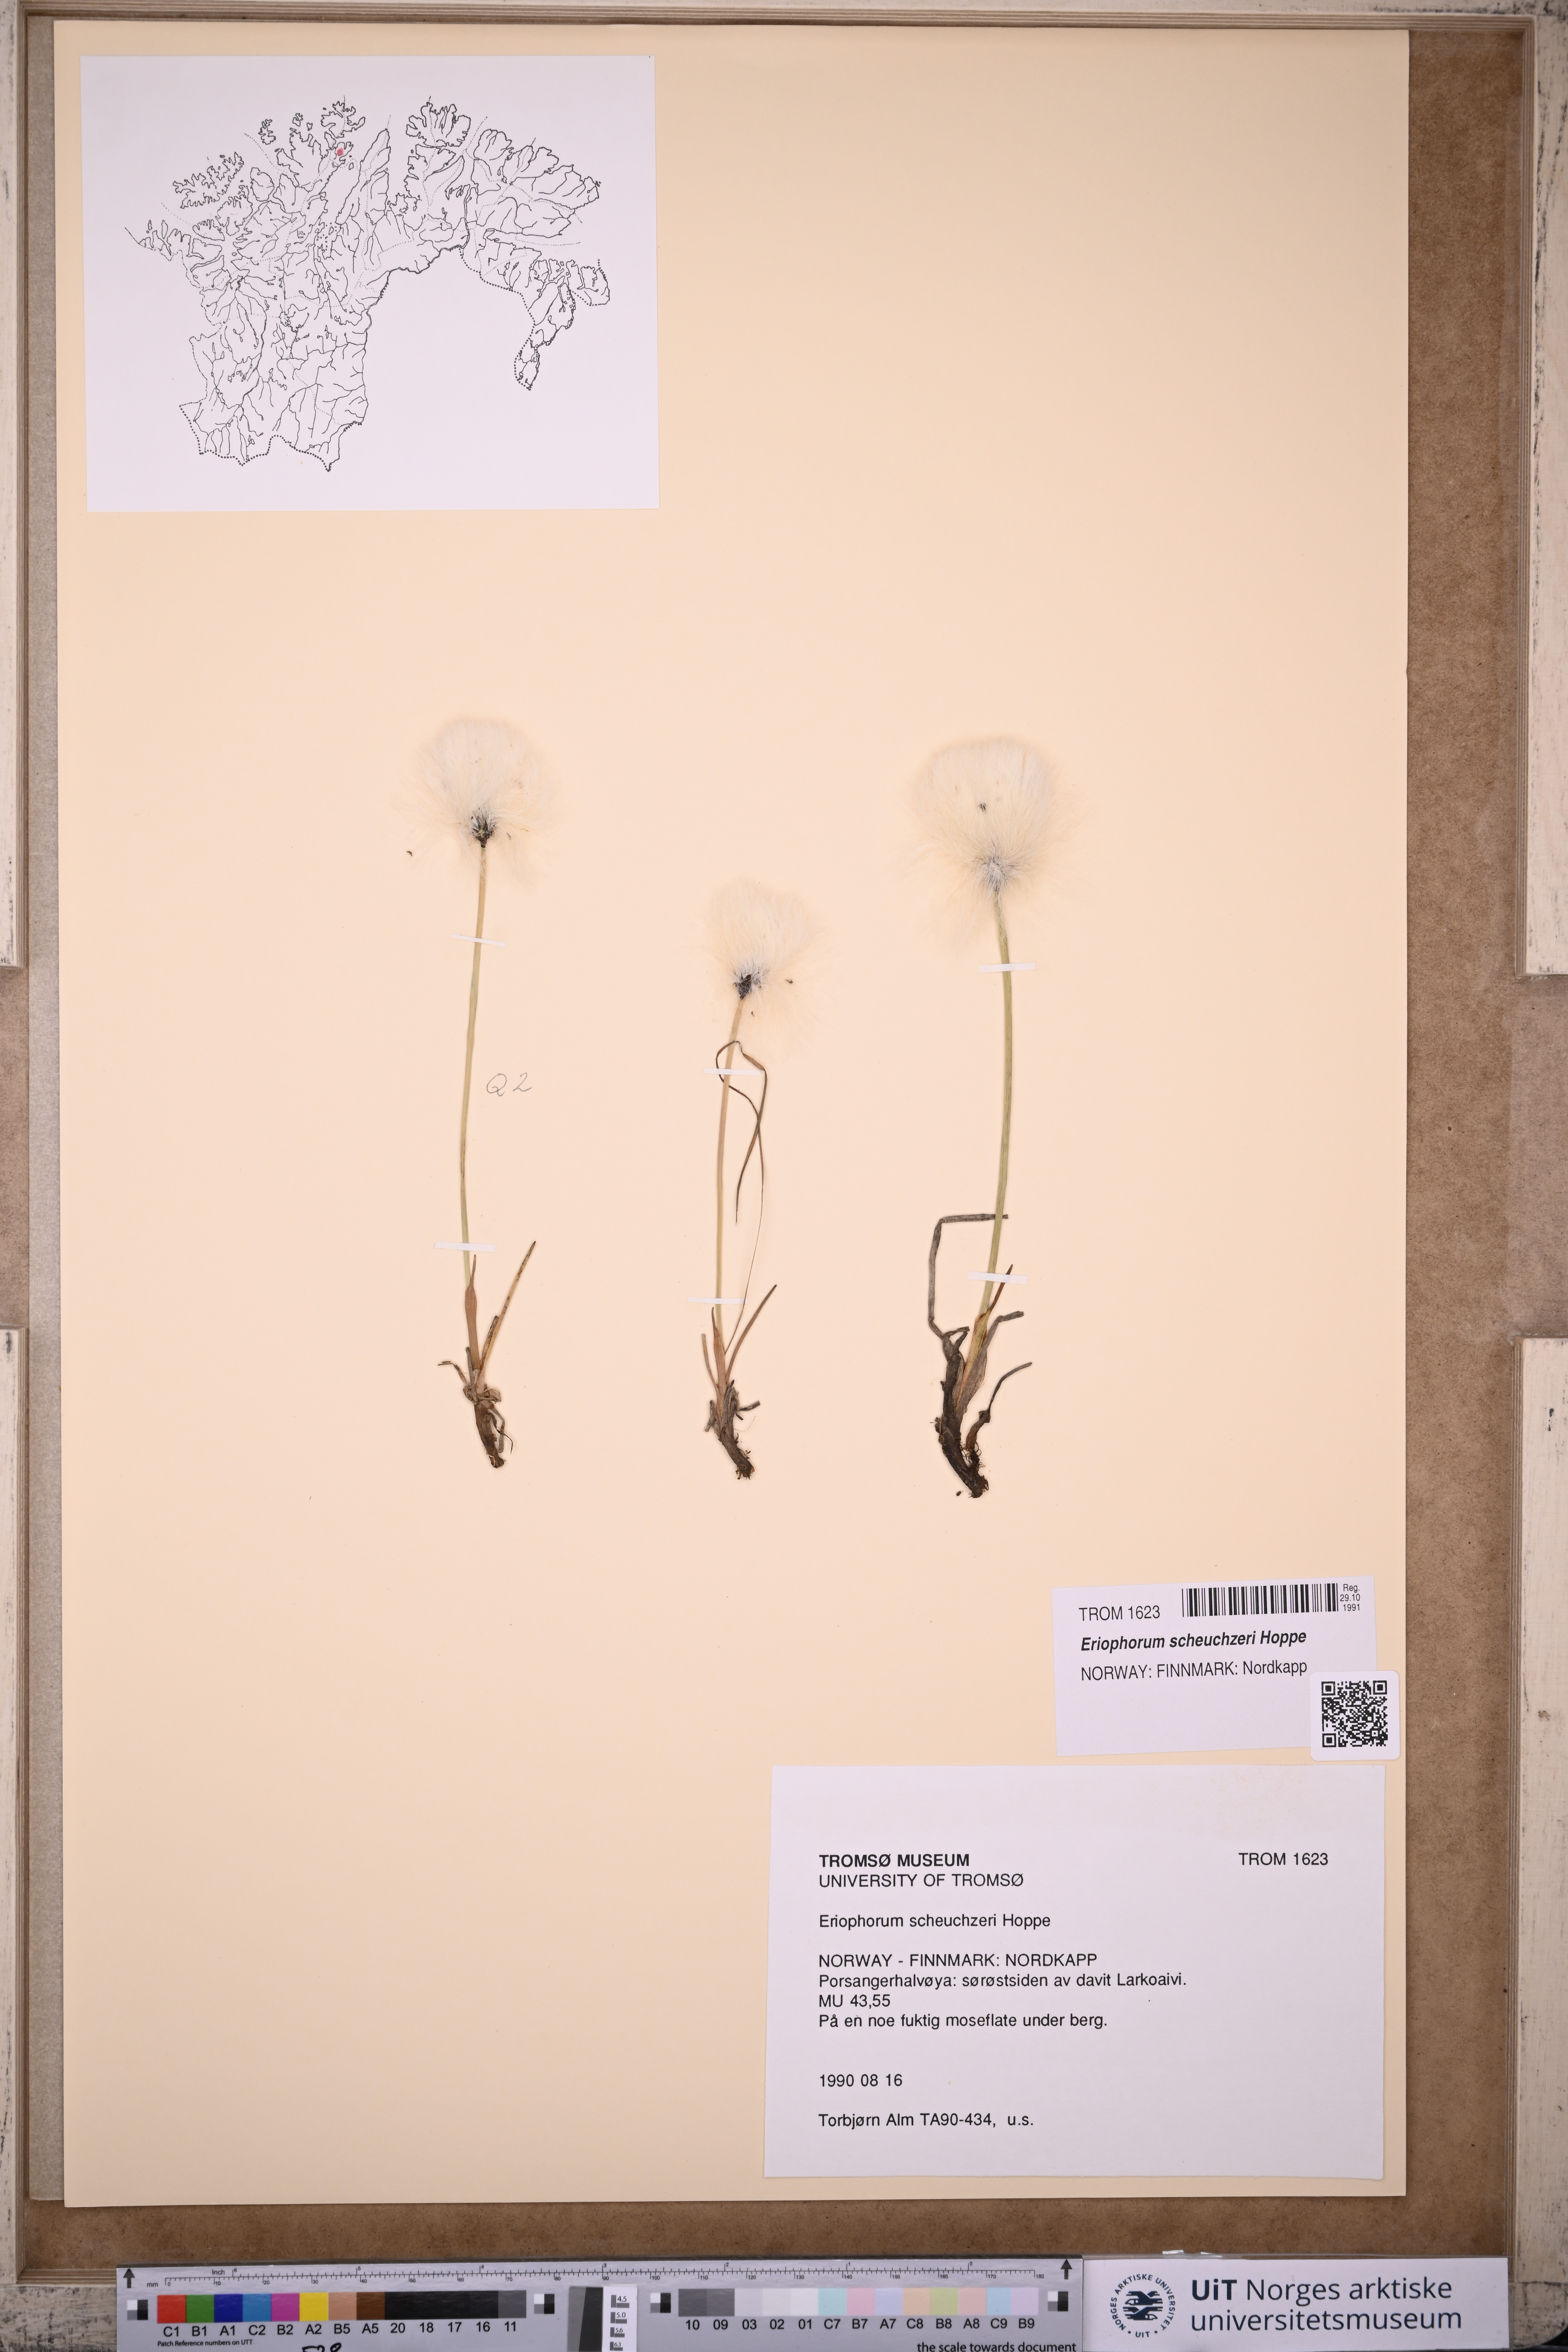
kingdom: Plantae
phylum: Tracheophyta
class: Liliopsida
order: Poales
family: Cyperaceae
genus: Eriophorum
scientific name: Eriophorum scheuchzeri
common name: Scheuchzer's cottongrass
